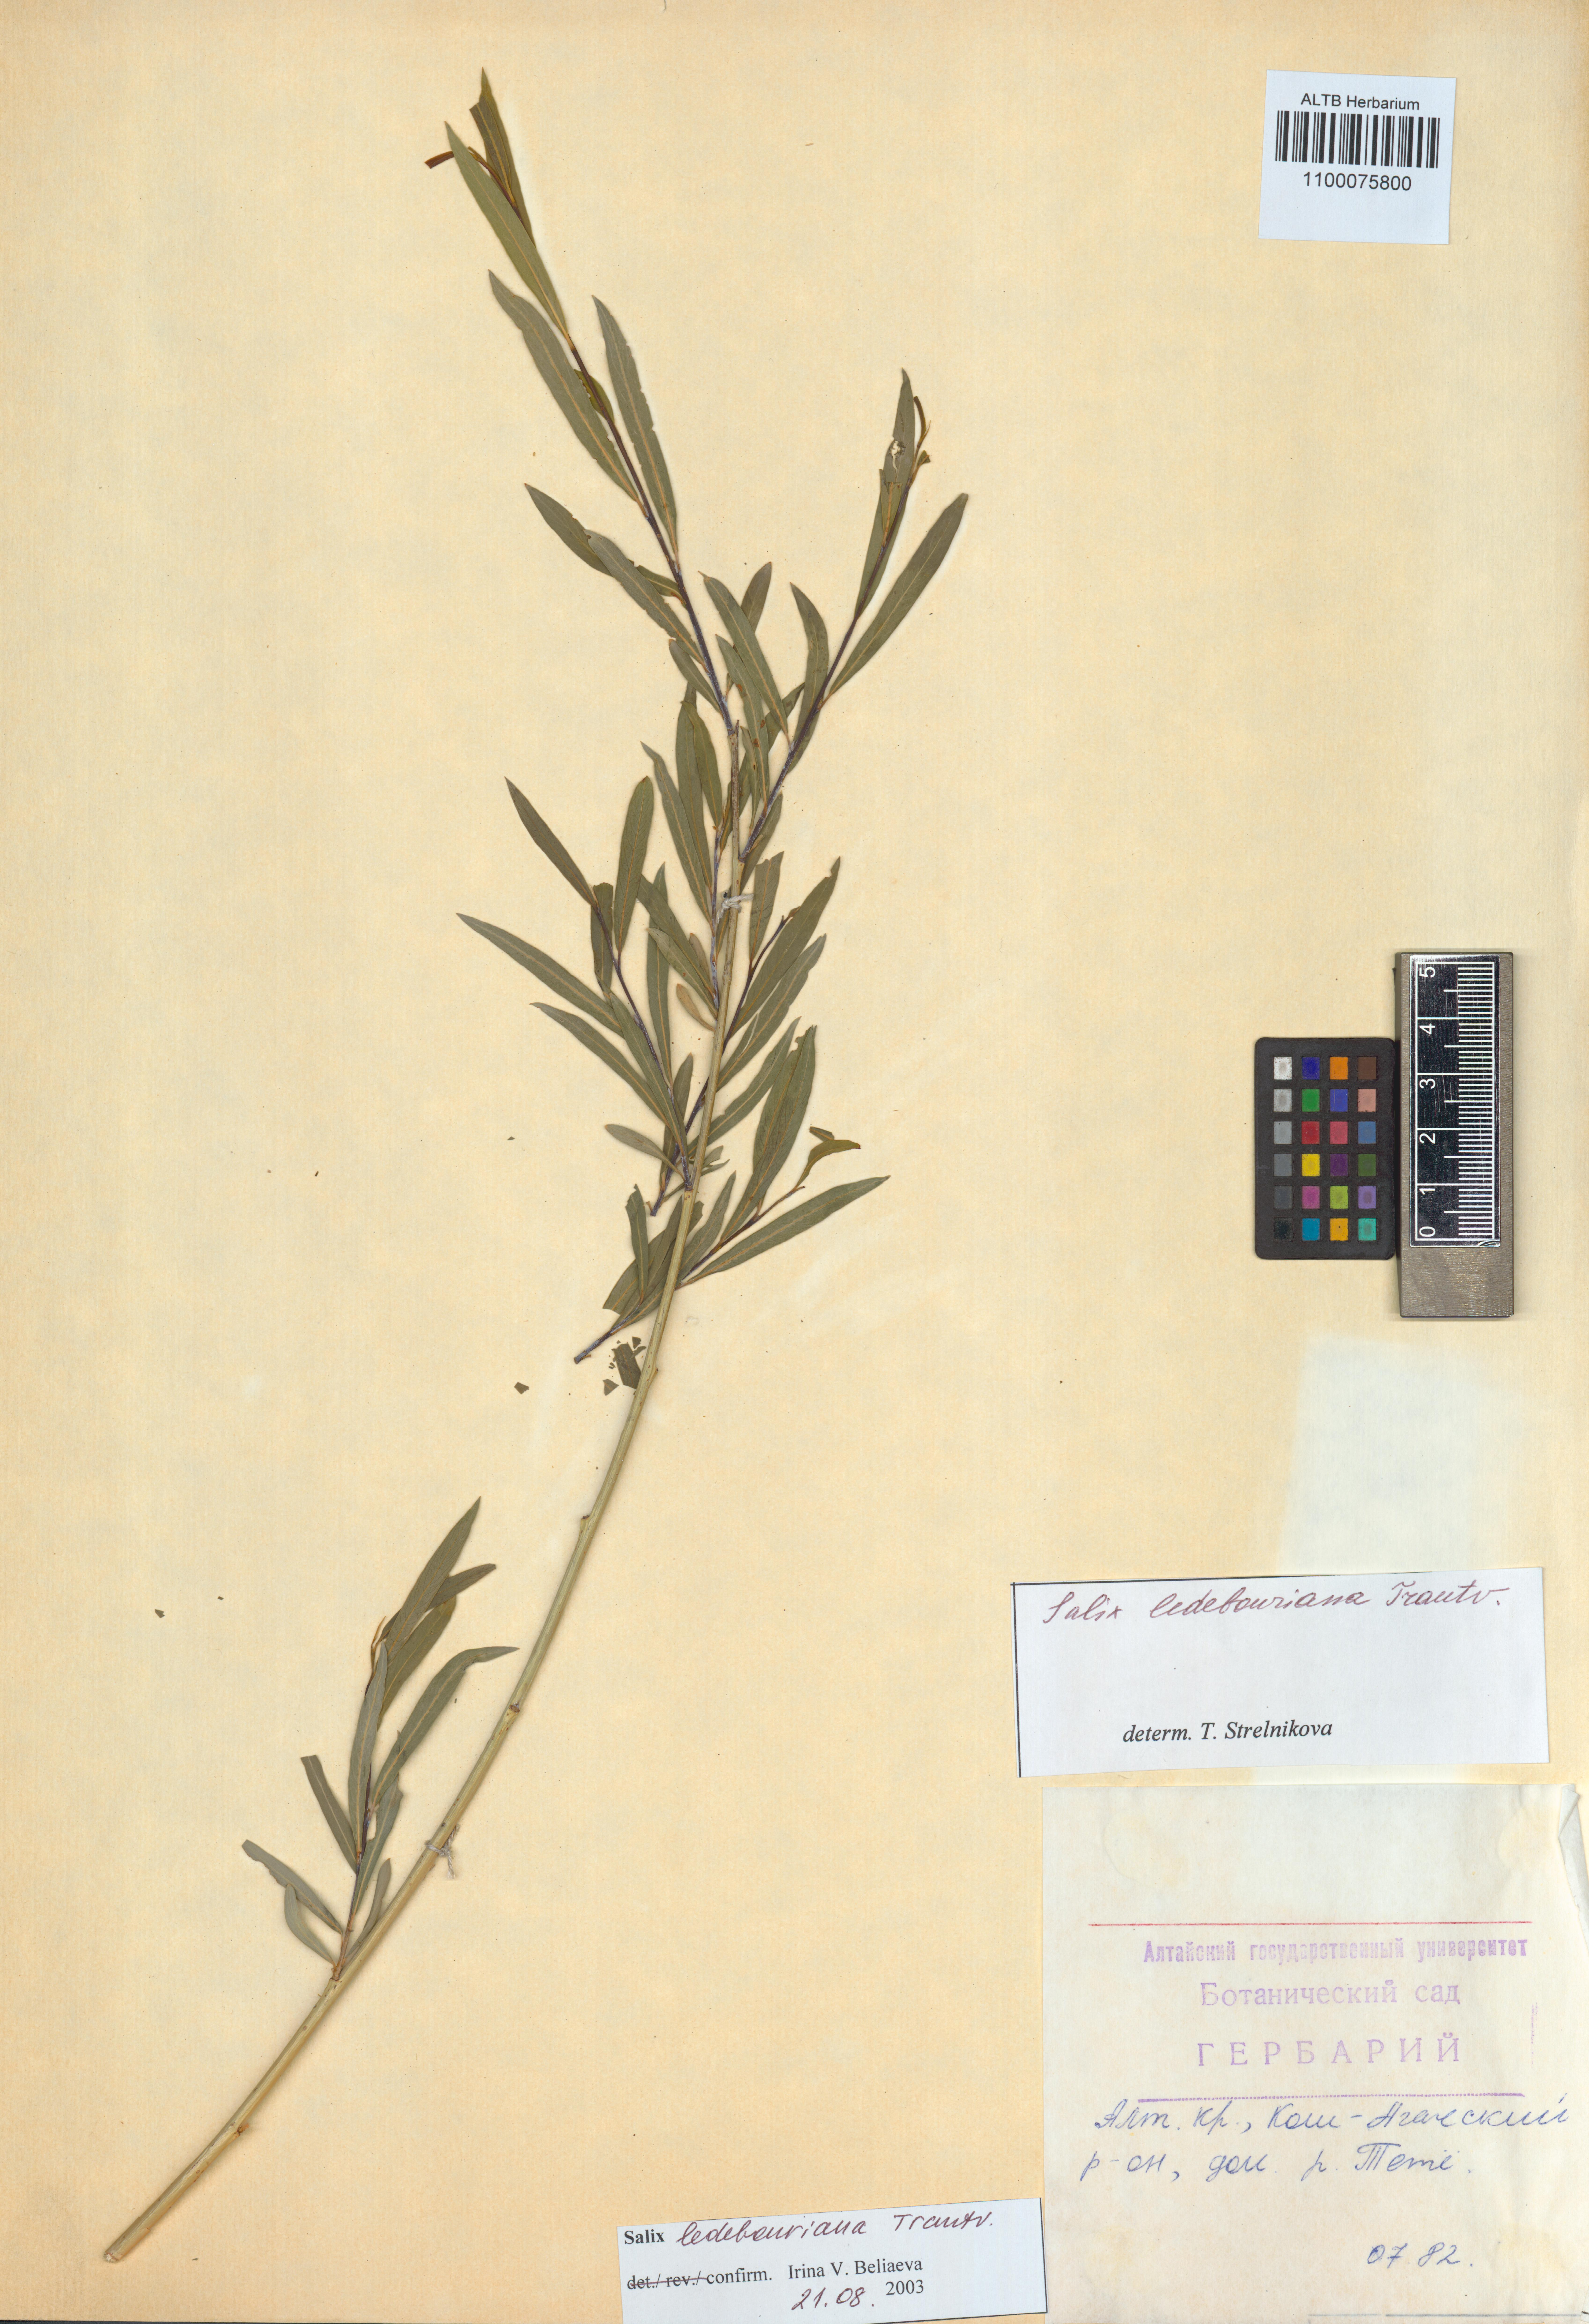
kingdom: Plantae
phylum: Tracheophyta
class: Magnoliopsida
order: Malpighiales
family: Salicaceae
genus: Salix
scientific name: Salix ledebouriana
